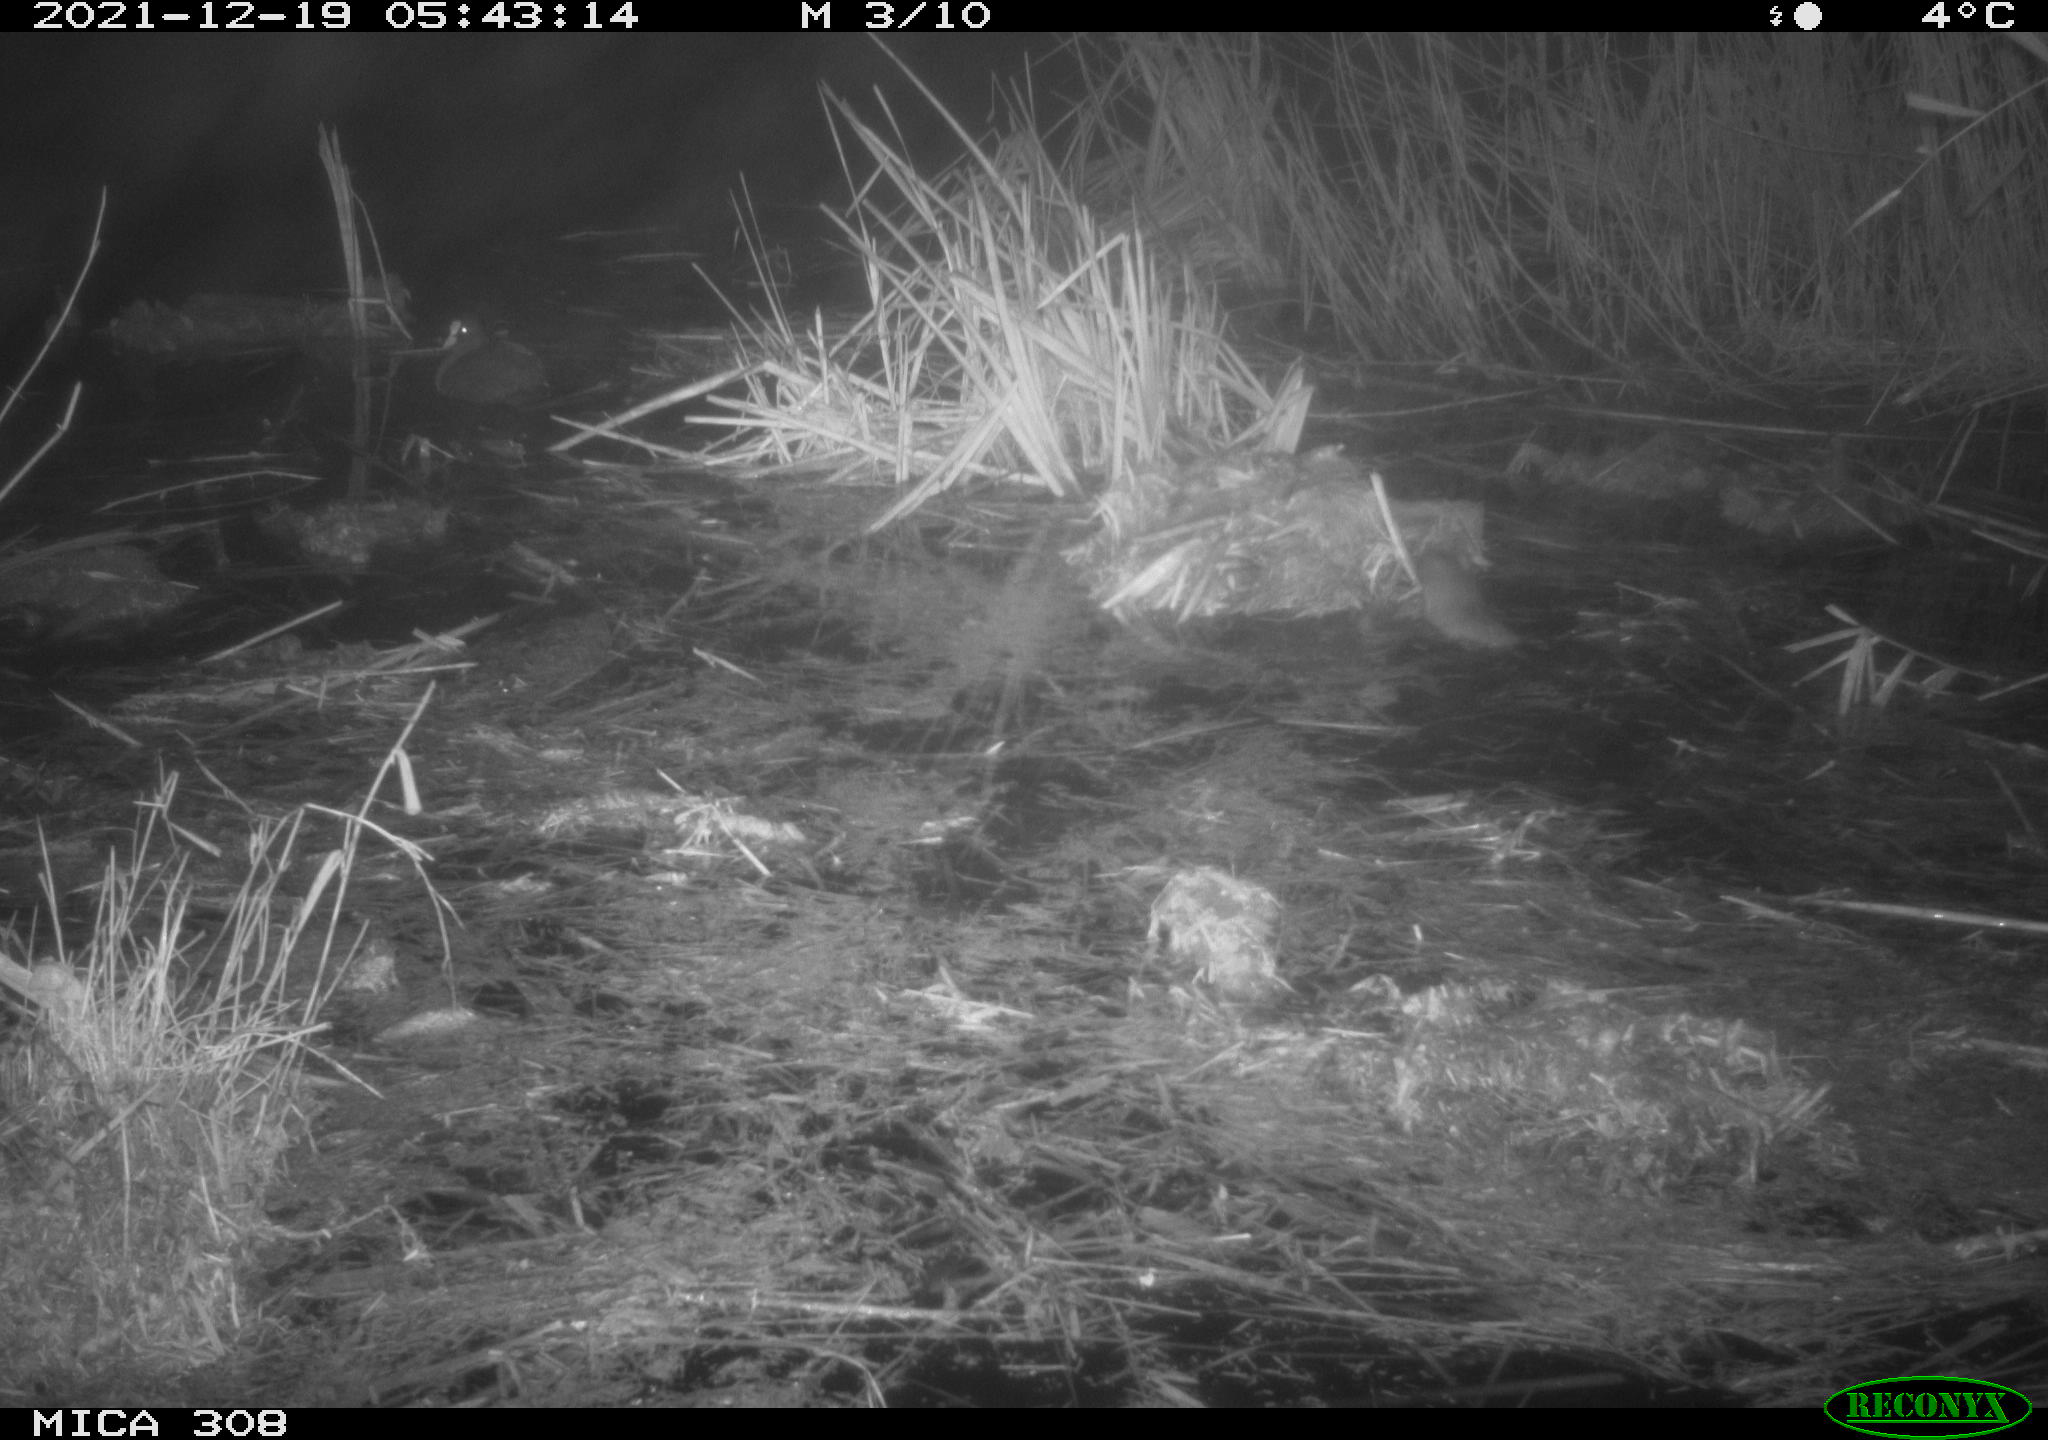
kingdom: Animalia
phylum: Chordata
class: Mammalia
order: Rodentia
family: Muridae
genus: Rattus
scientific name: Rattus norvegicus
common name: Brown rat
